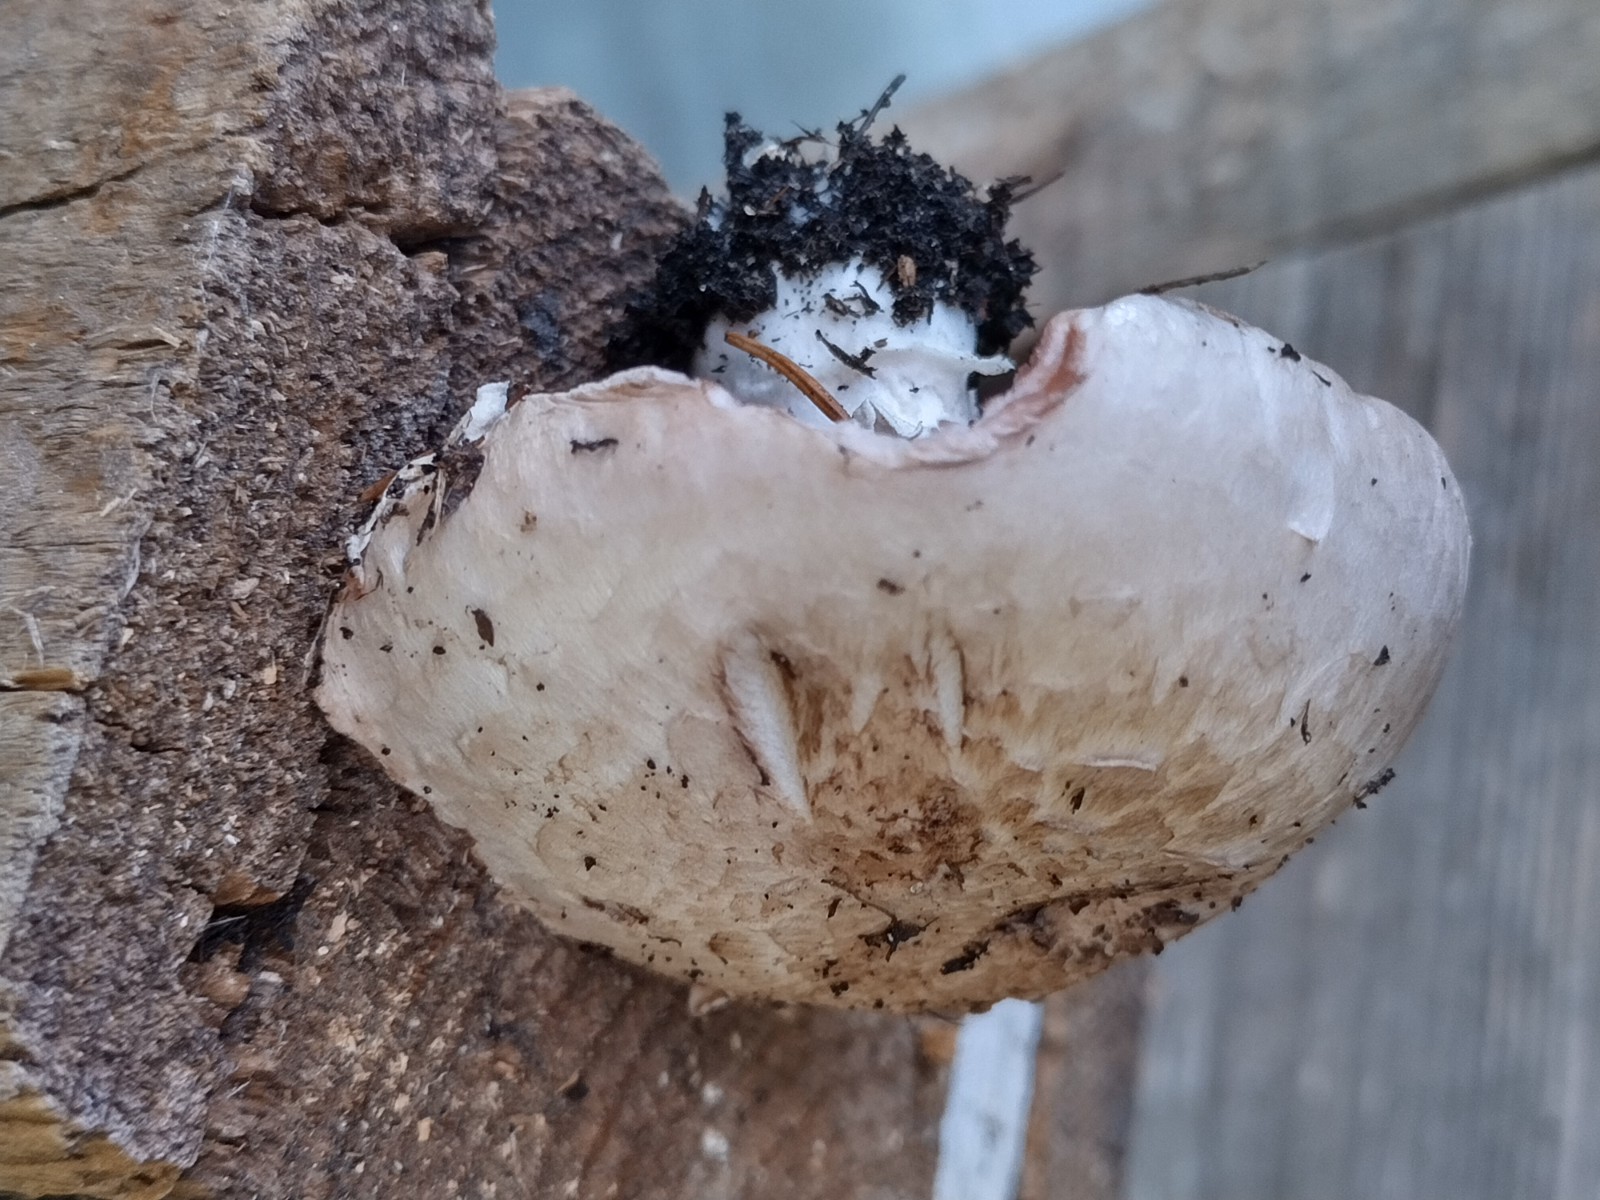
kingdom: Fungi
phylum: Basidiomycota
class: Agaricomycetes
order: Agaricales
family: Agaricaceae
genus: Agaricus
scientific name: Agaricus bisporus
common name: have-champignon
